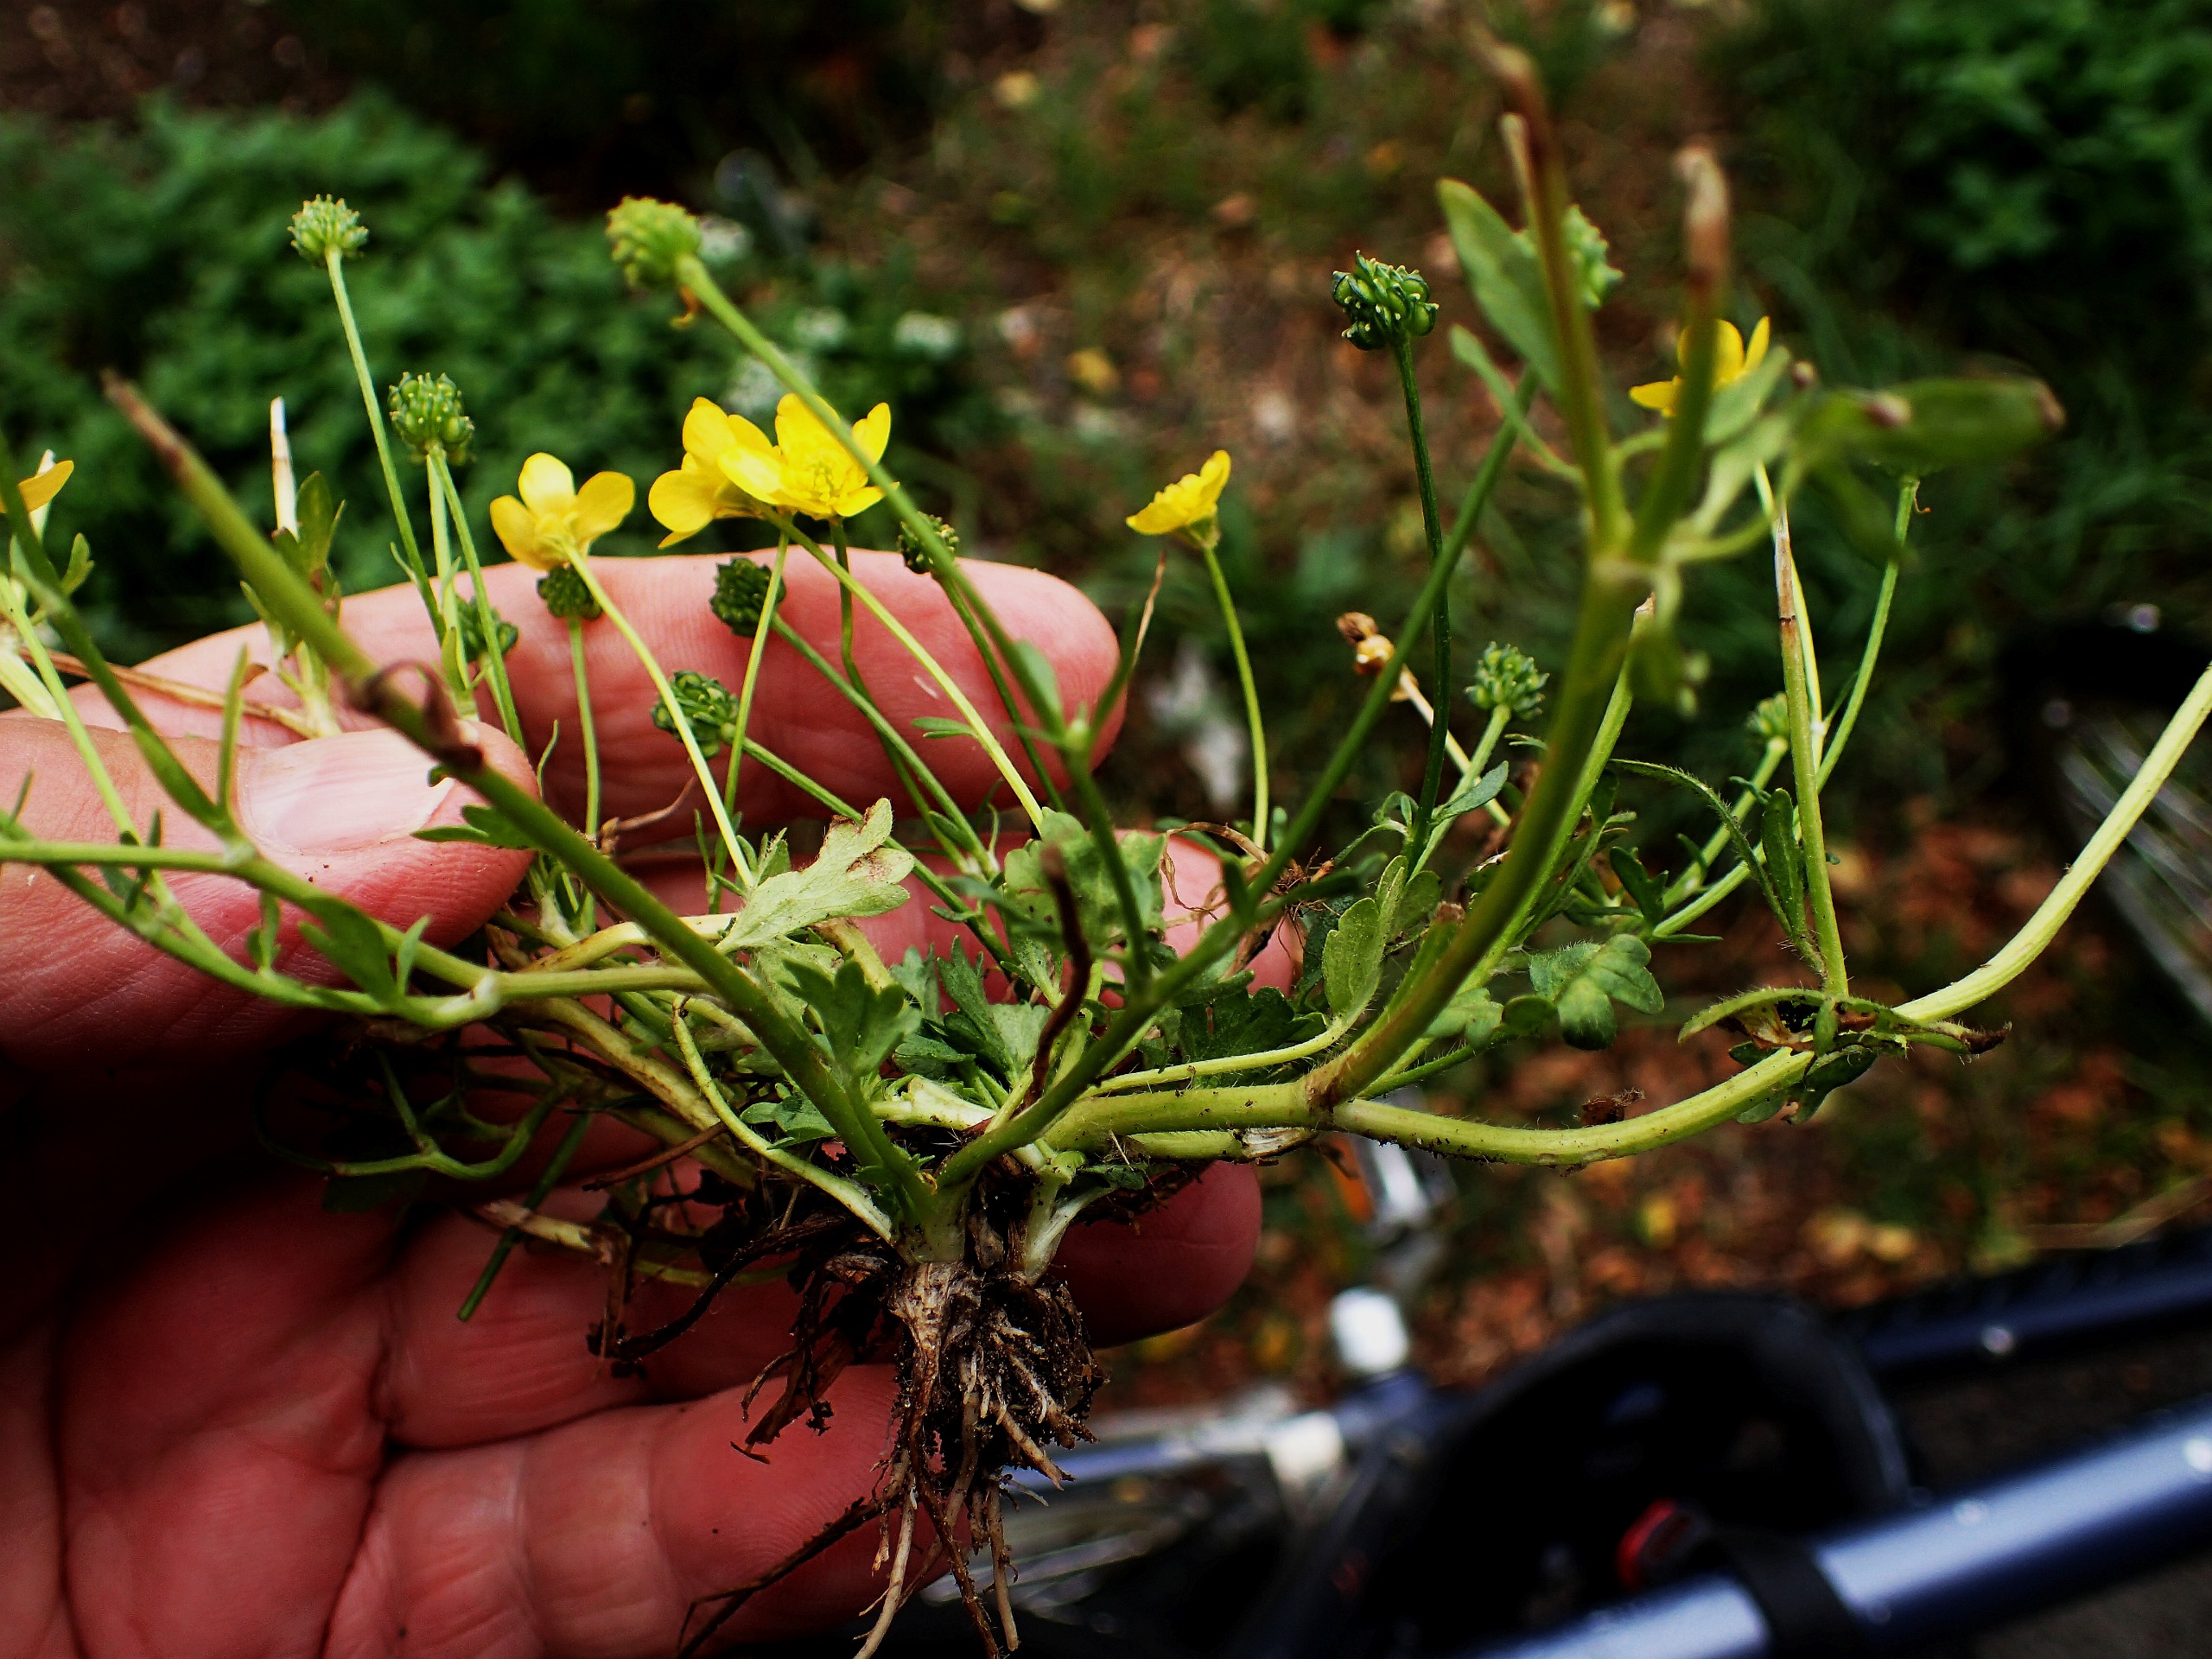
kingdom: Plantae
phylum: Tracheophyta
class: Magnoliopsida
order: Ranunculales
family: Ranunculaceae
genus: Ranunculus
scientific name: Ranunculus sardous
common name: Stivhåret ranunkel
